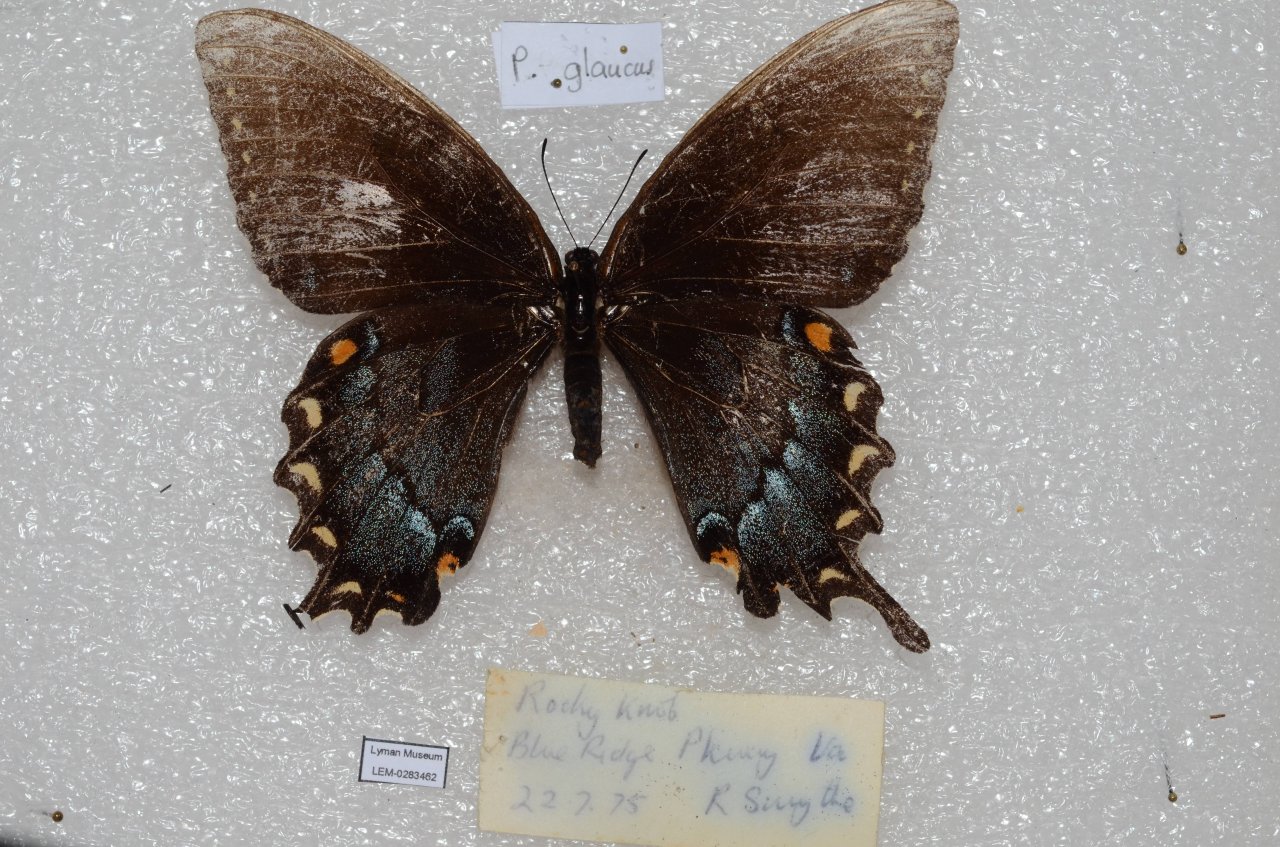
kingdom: Animalia
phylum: Arthropoda
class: Insecta
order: Lepidoptera
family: Papilionidae
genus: Pterourus
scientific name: Pterourus glaucus
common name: Eastern Tiger Swallowtail
